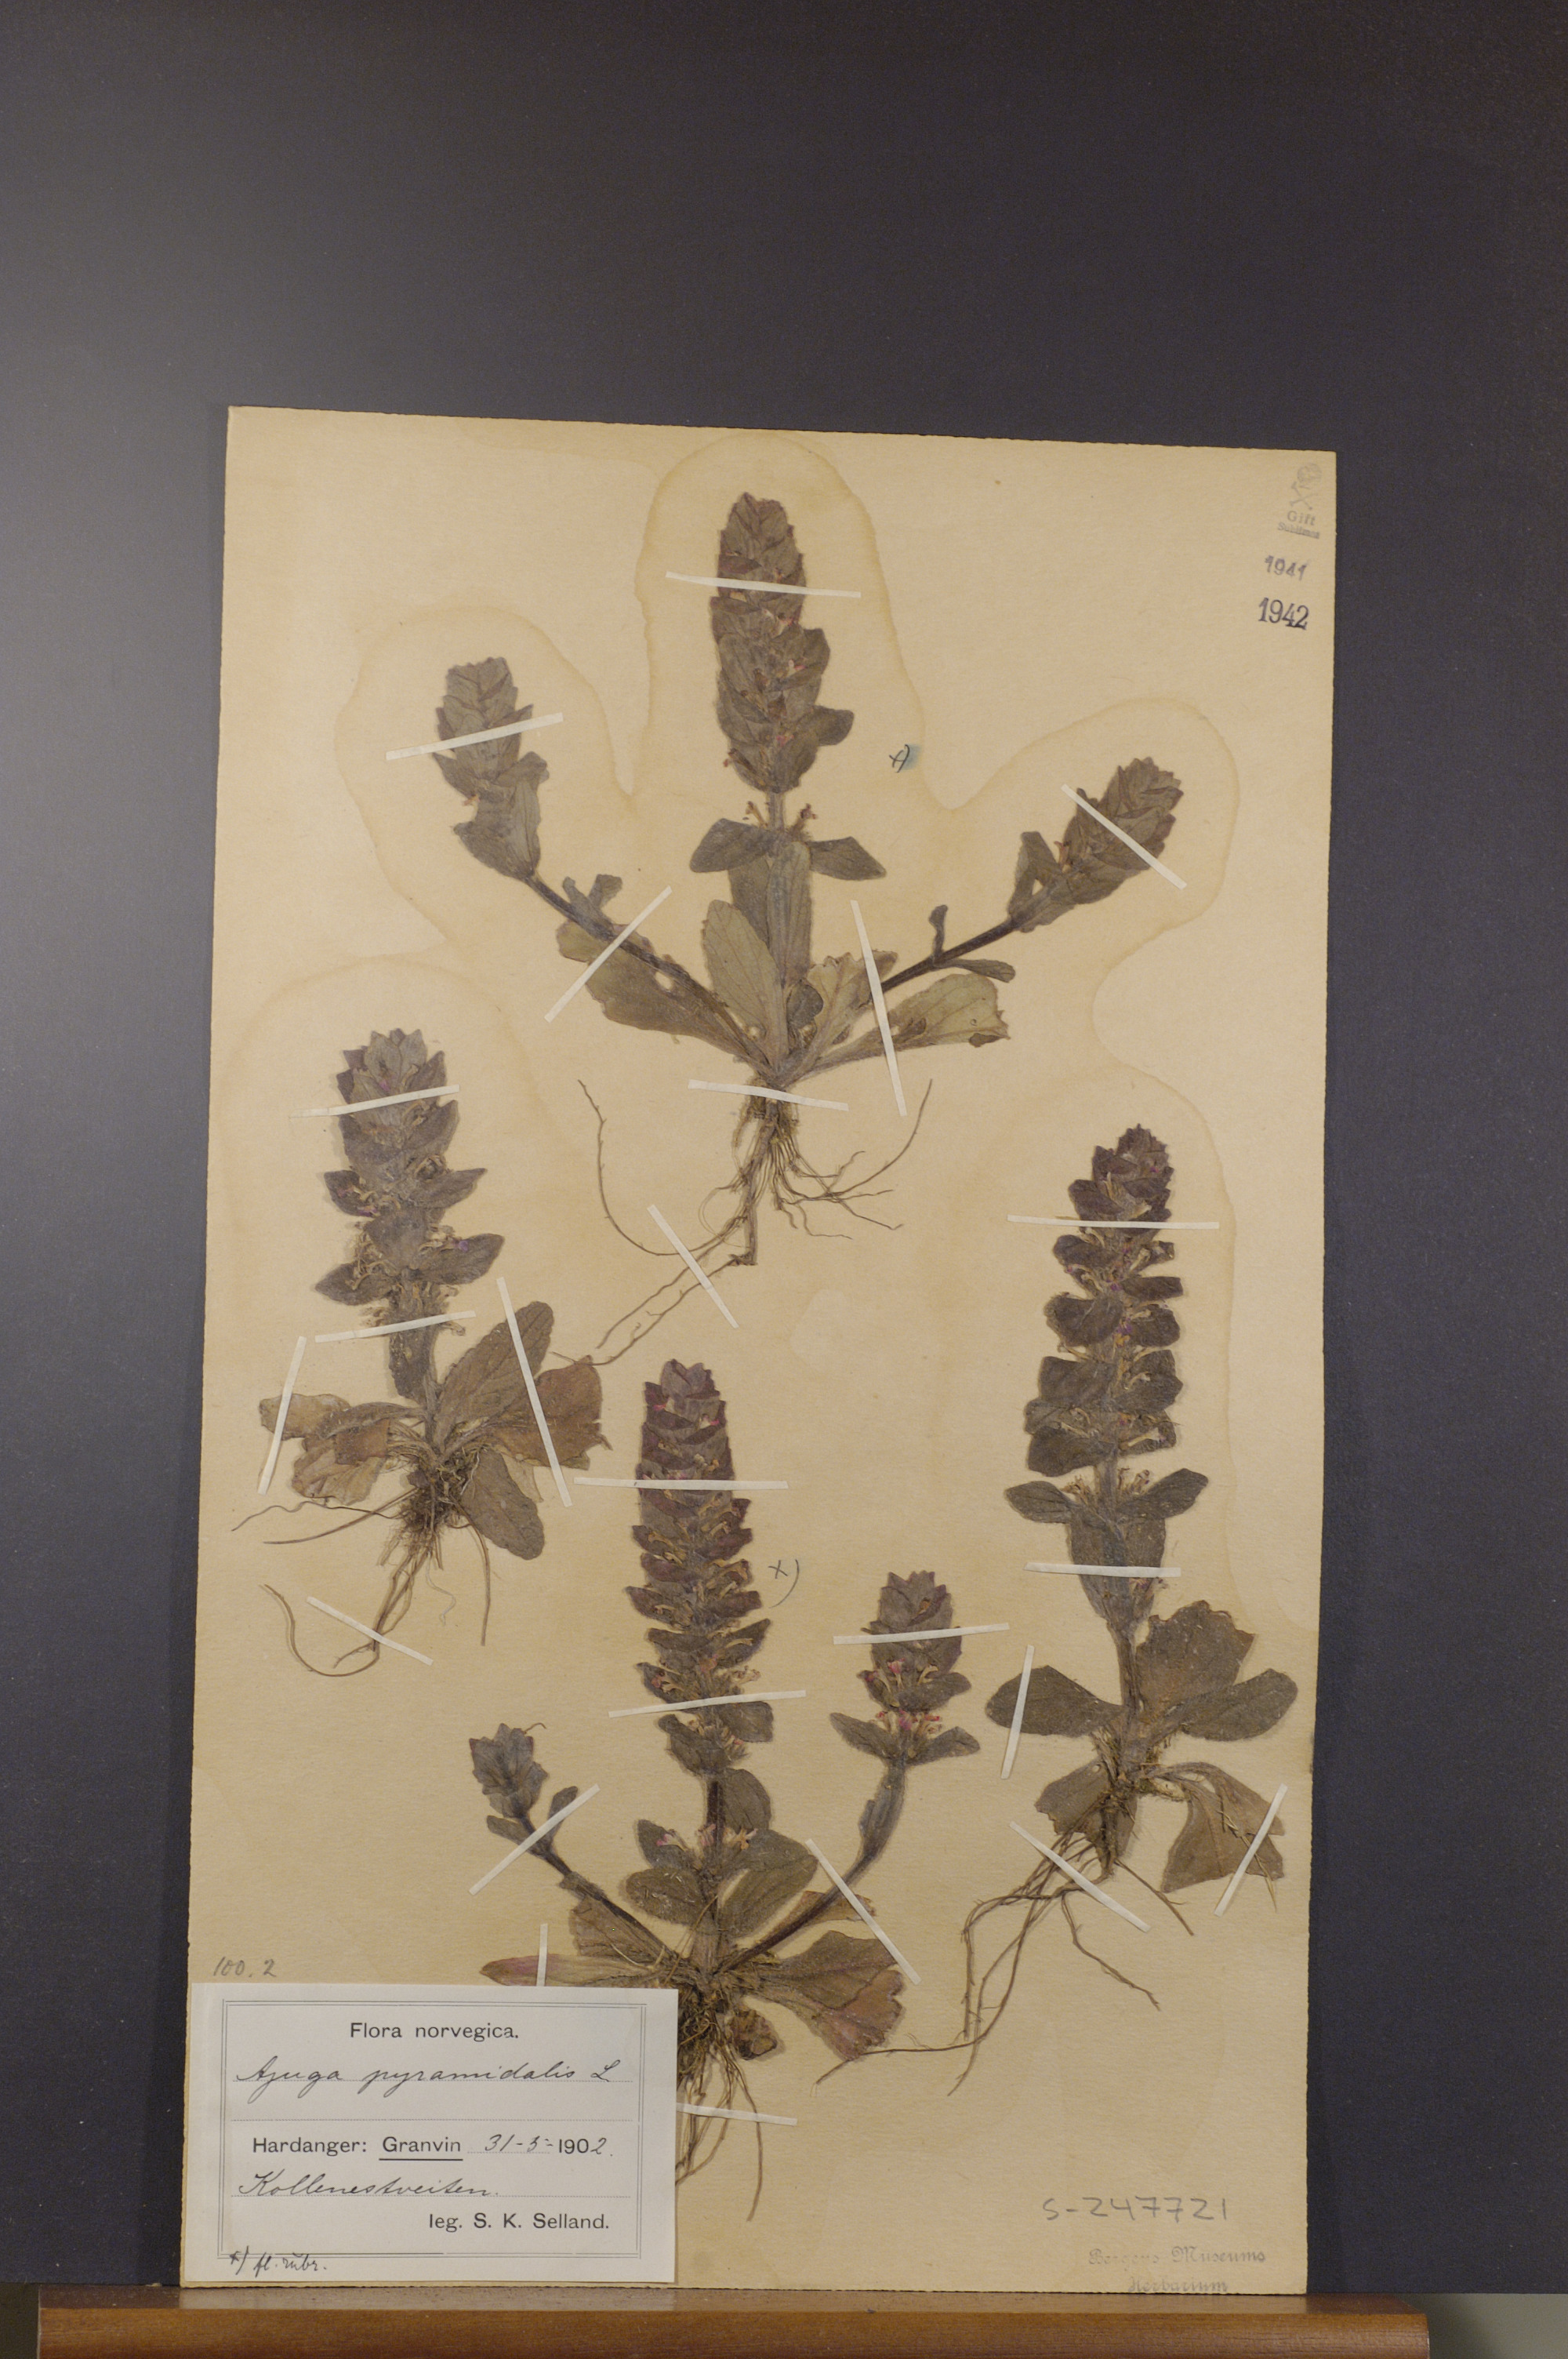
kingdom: Plantae
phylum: Tracheophyta
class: Magnoliopsida
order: Lamiales
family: Lamiaceae
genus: Ajuga
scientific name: Ajuga pyramidalis
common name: Pyramid bugle
